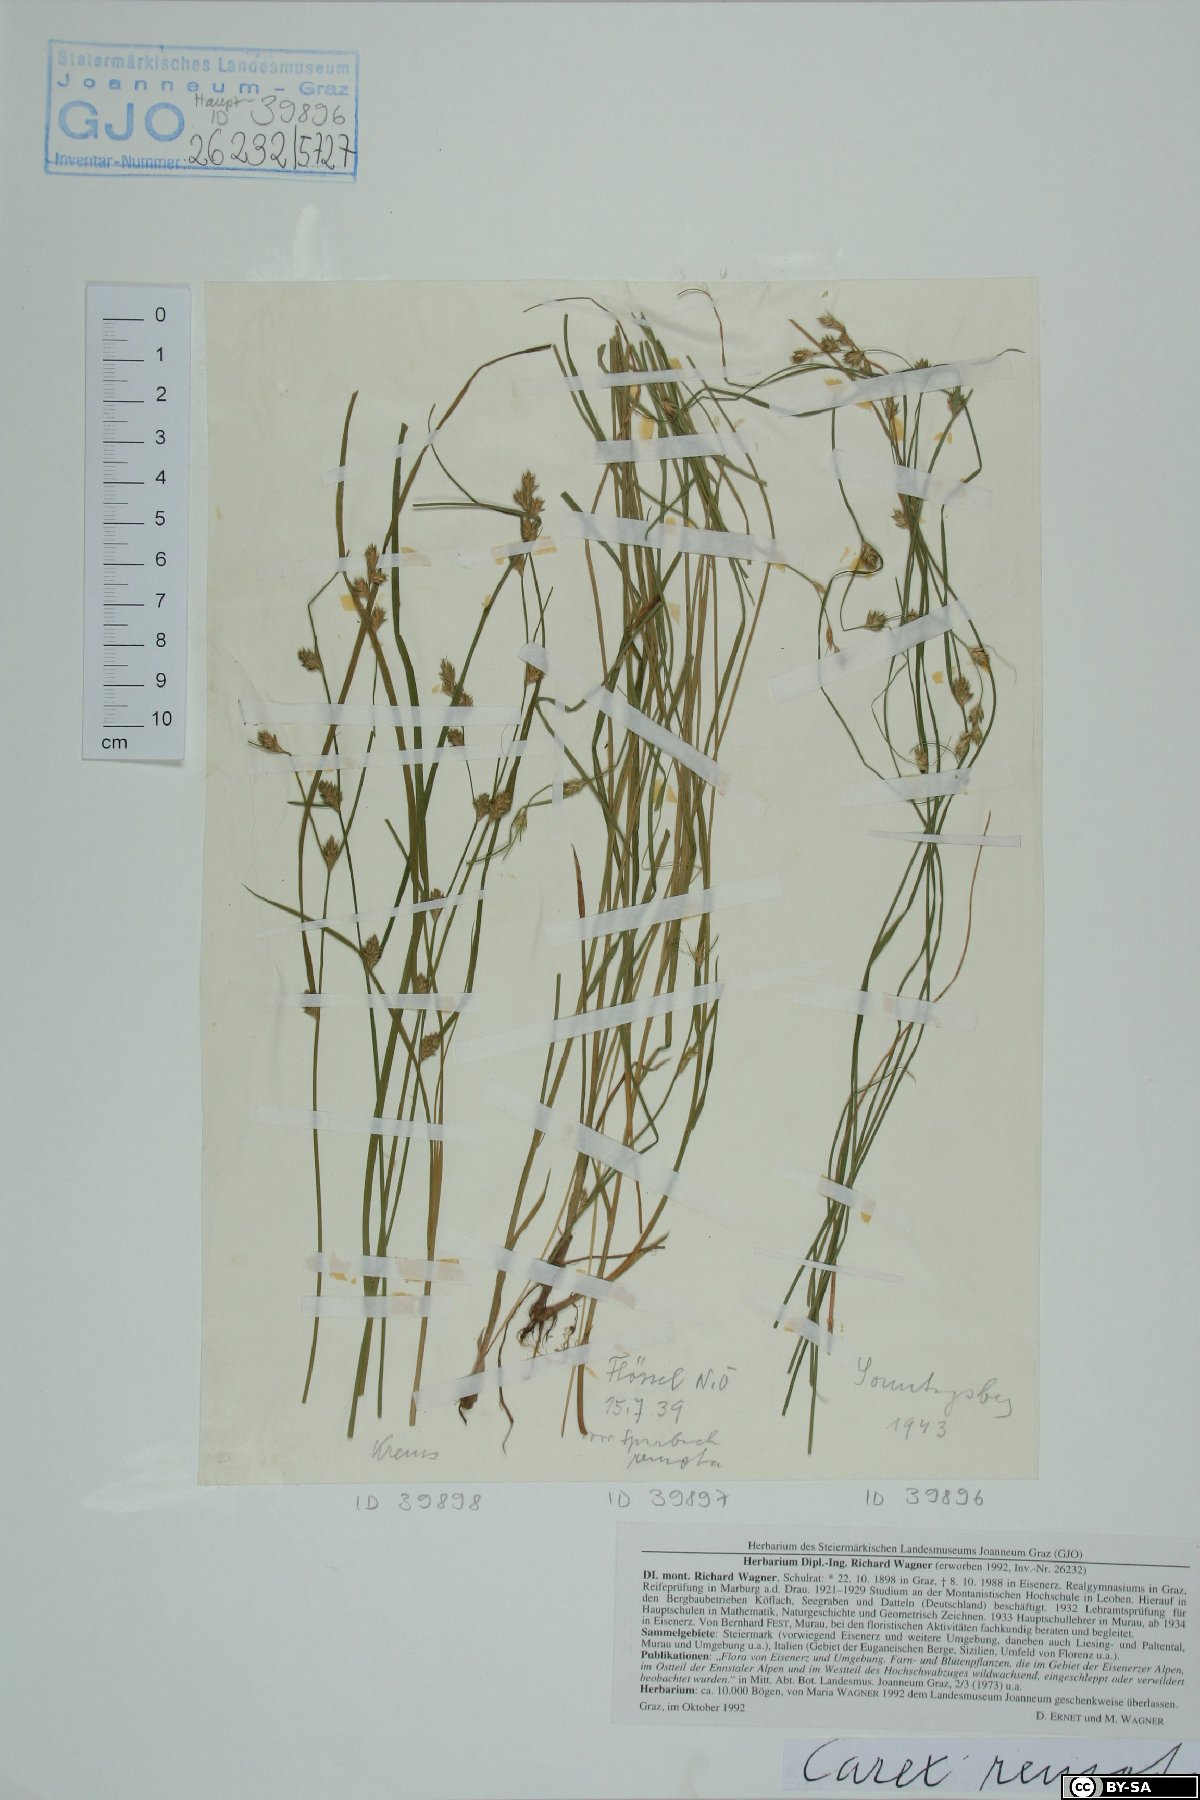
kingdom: Plantae
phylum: Tracheophyta
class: Liliopsida
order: Poales
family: Cyperaceae
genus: Carex
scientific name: Carex remota
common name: Remote sedge
